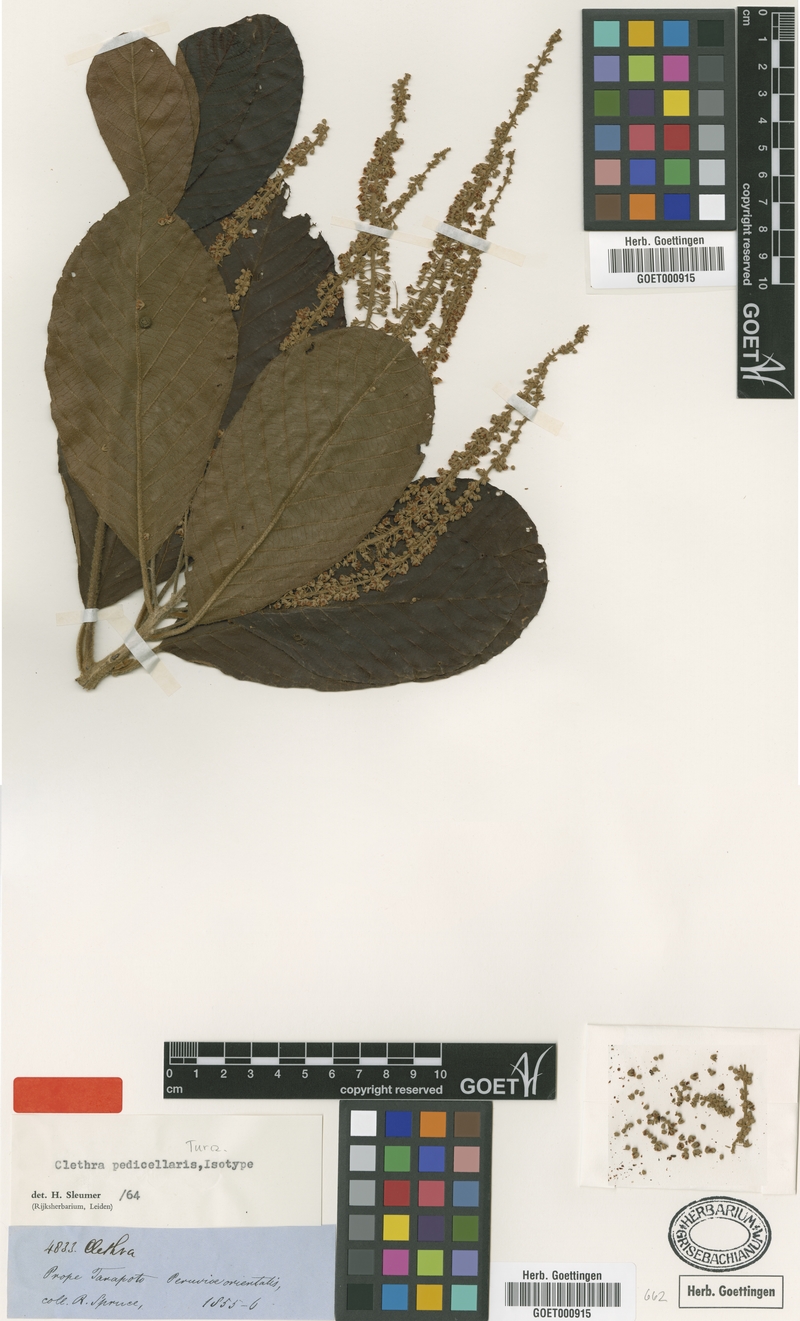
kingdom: Plantae
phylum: Tracheophyta
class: Magnoliopsida
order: Ericales
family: Clethraceae
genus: Clethra
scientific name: Clethra pedicellaris
